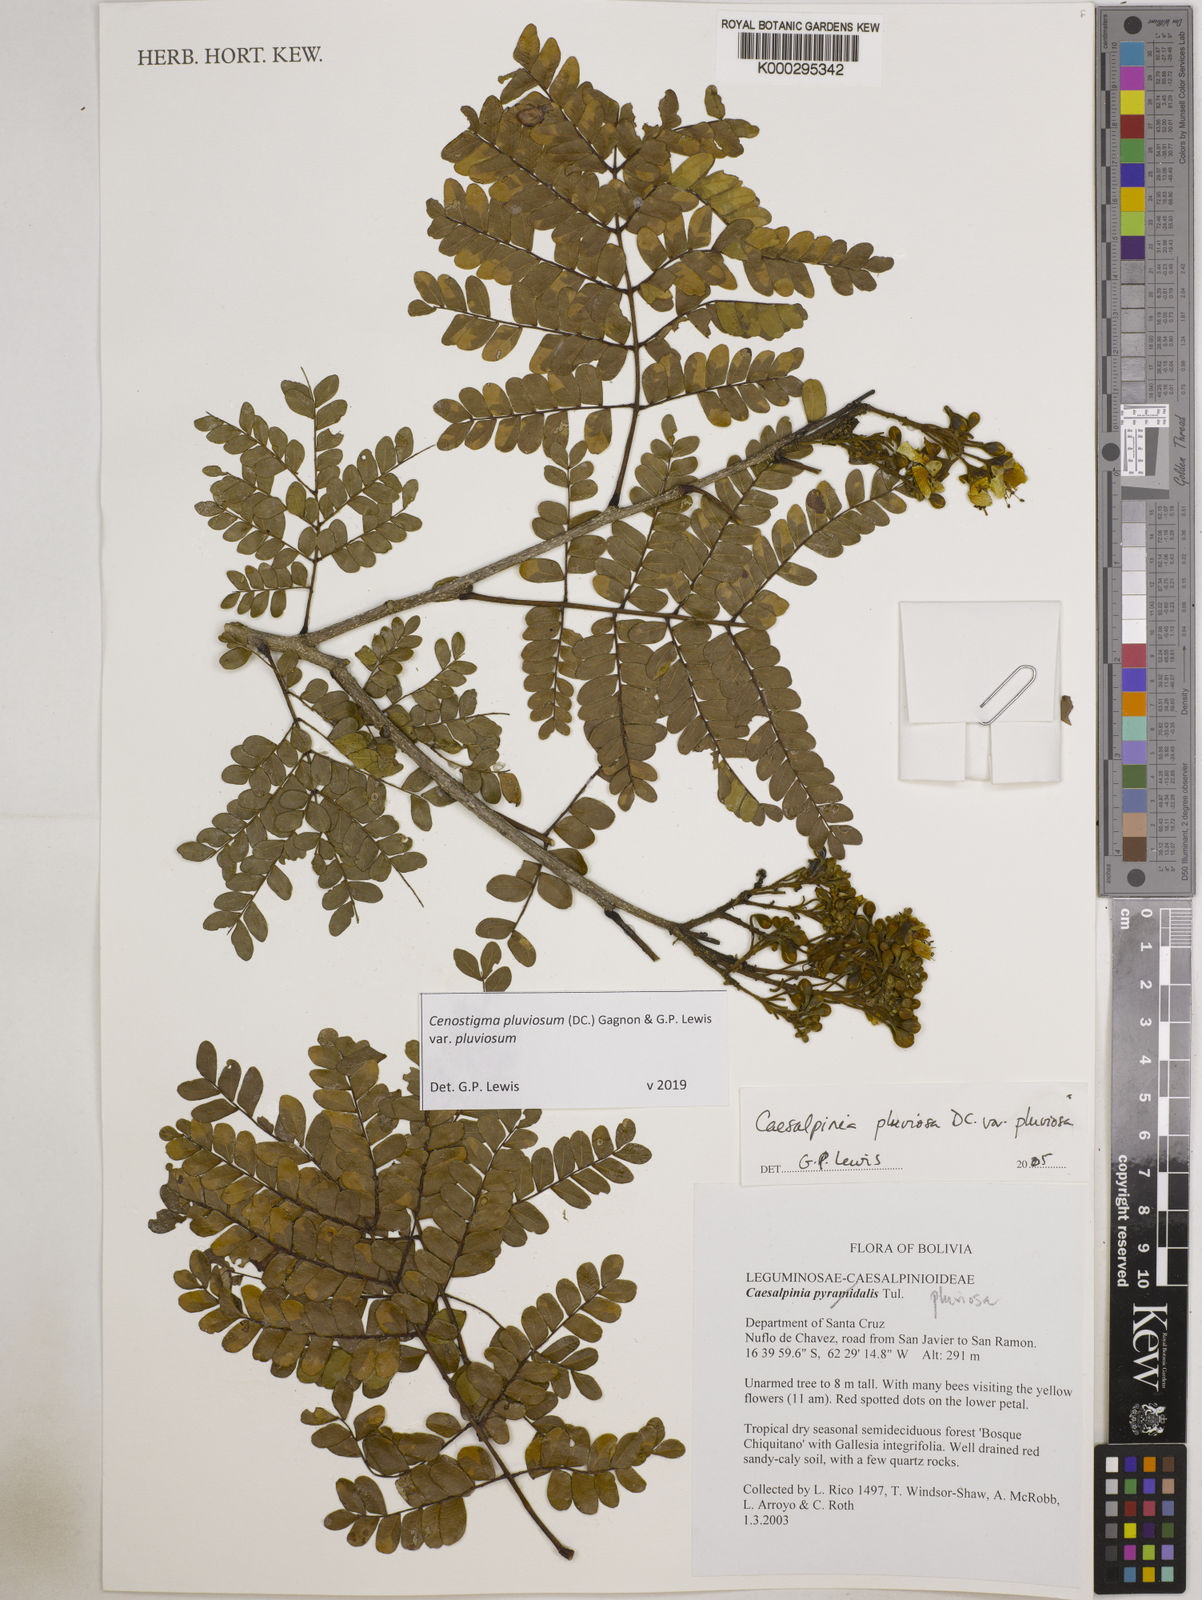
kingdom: Plantae
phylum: Tracheophyta
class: Magnoliopsida
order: Fabales
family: Fabaceae
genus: Cenostigma
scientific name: Cenostigma pluviosum
